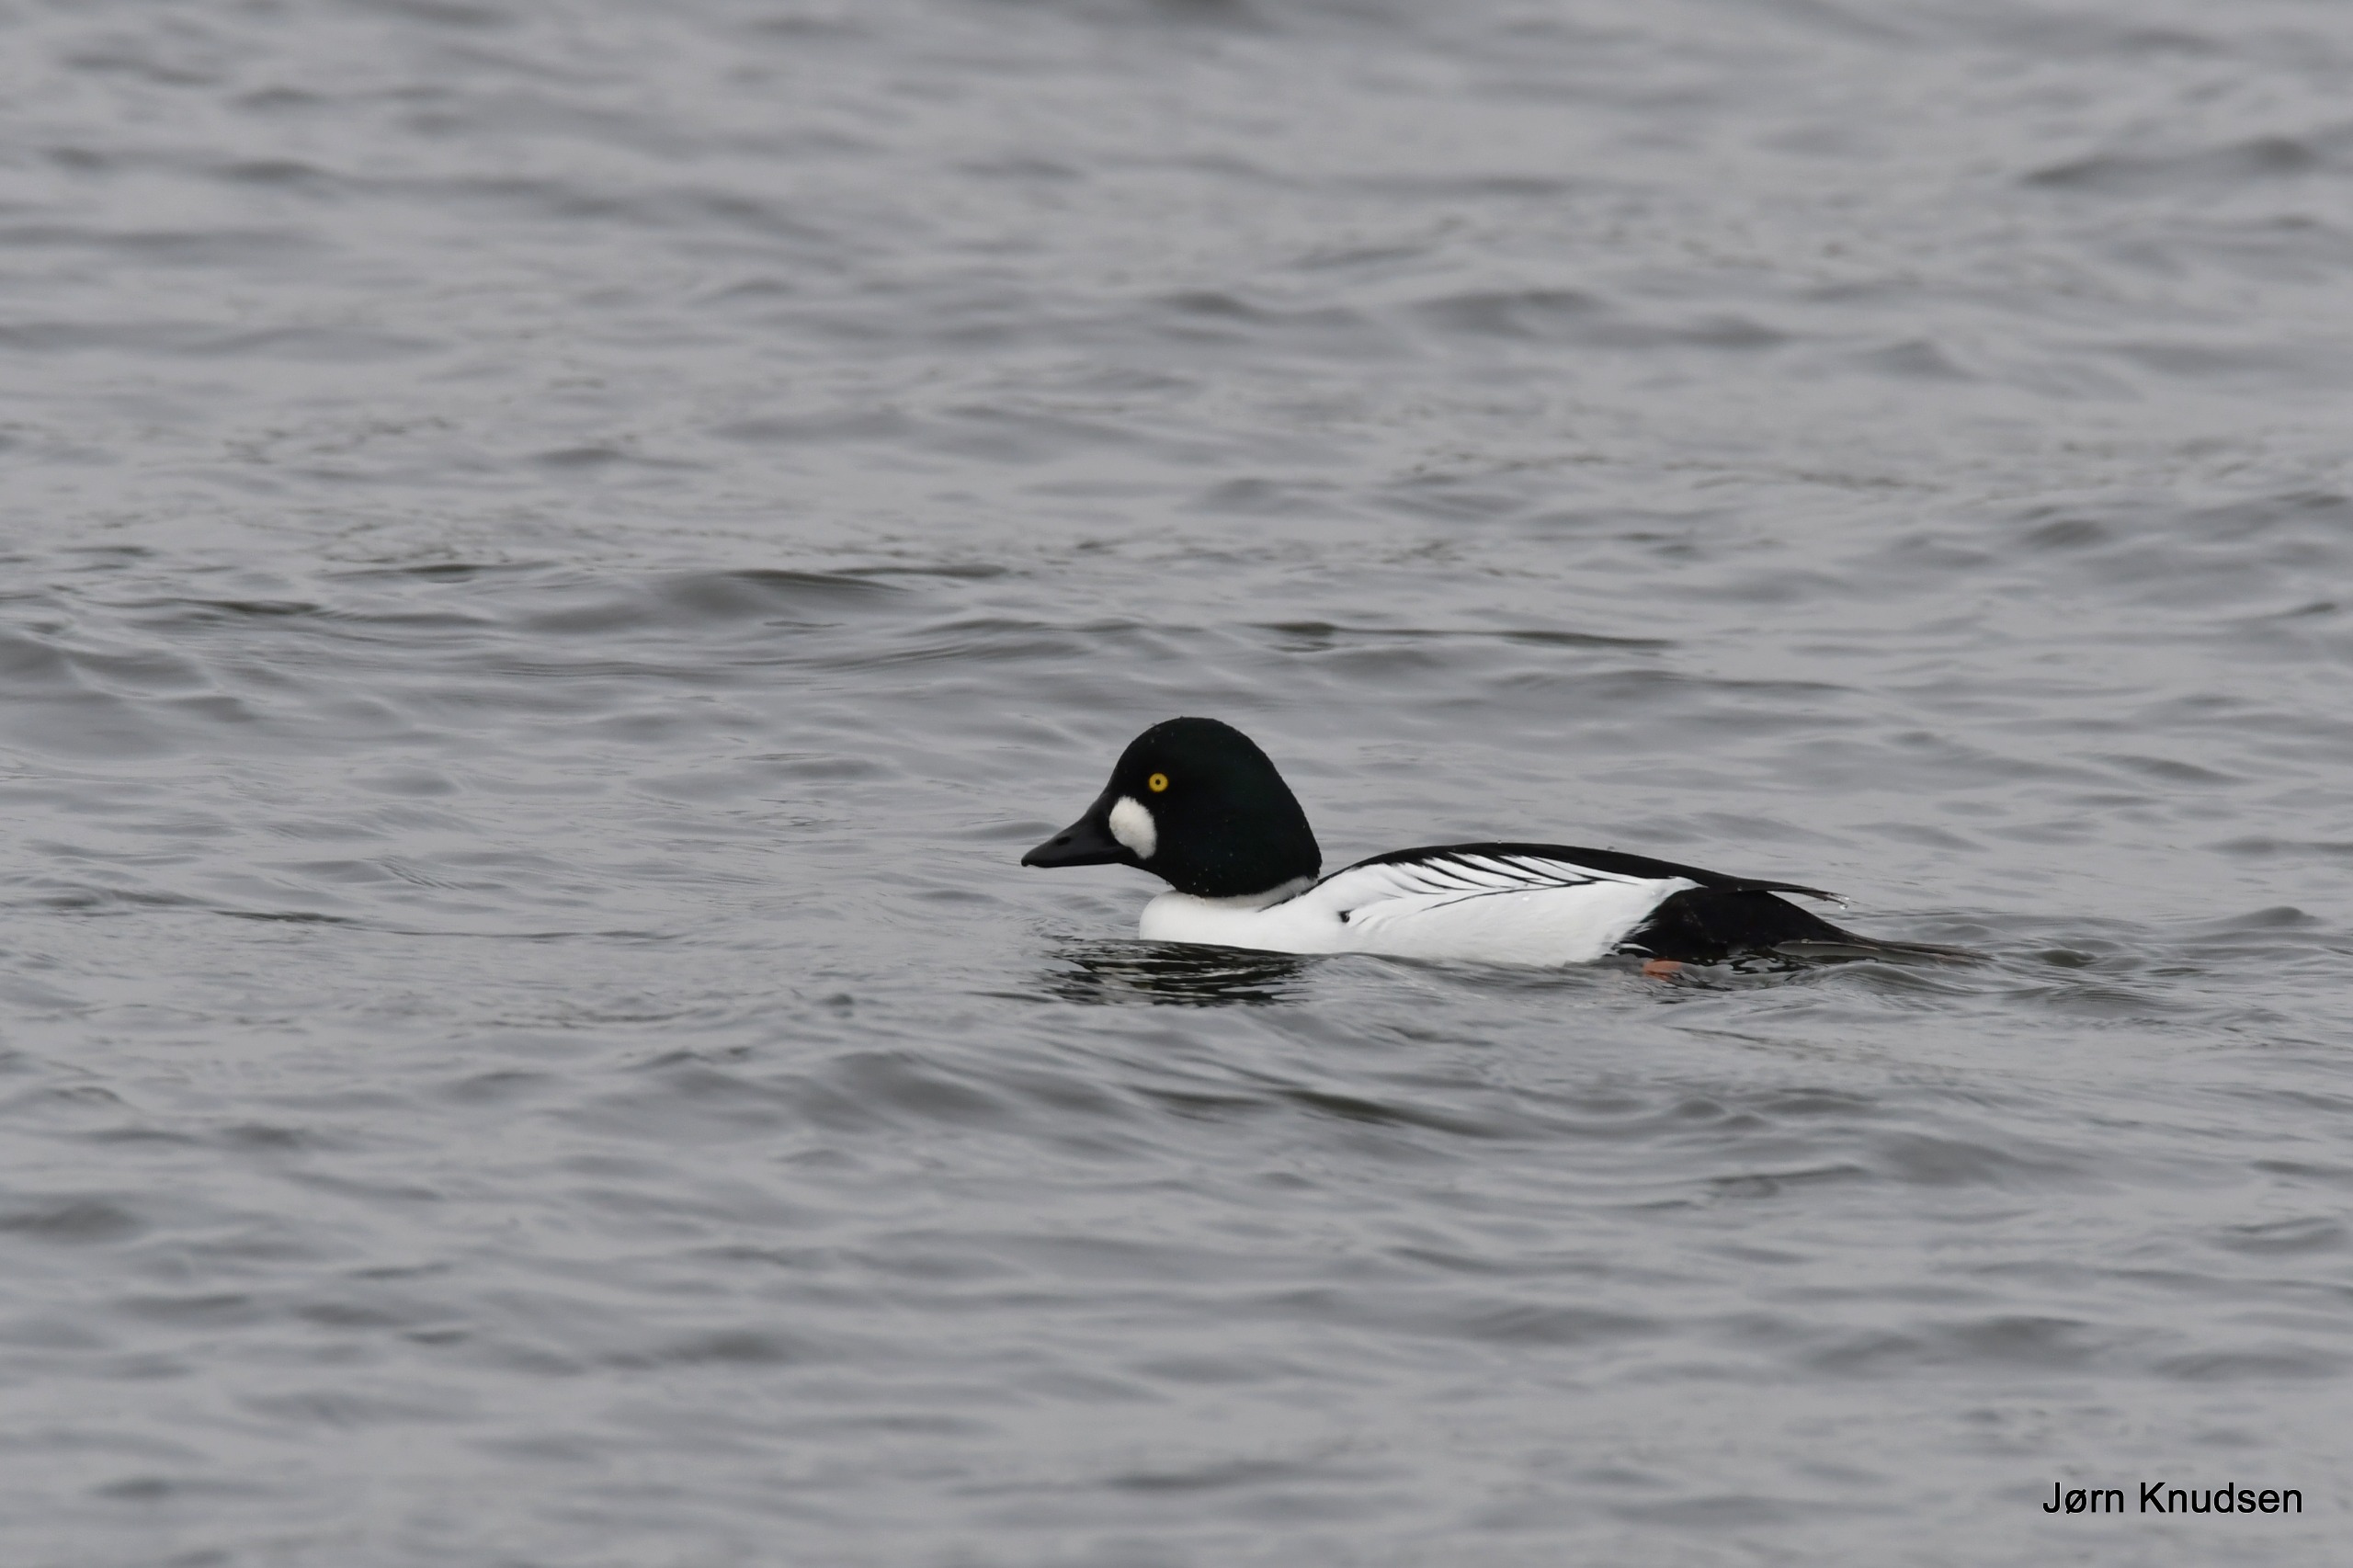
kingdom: Animalia
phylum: Chordata
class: Aves
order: Anseriformes
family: Anatidae
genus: Bucephala
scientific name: Bucephala clangula
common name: Hvinand
